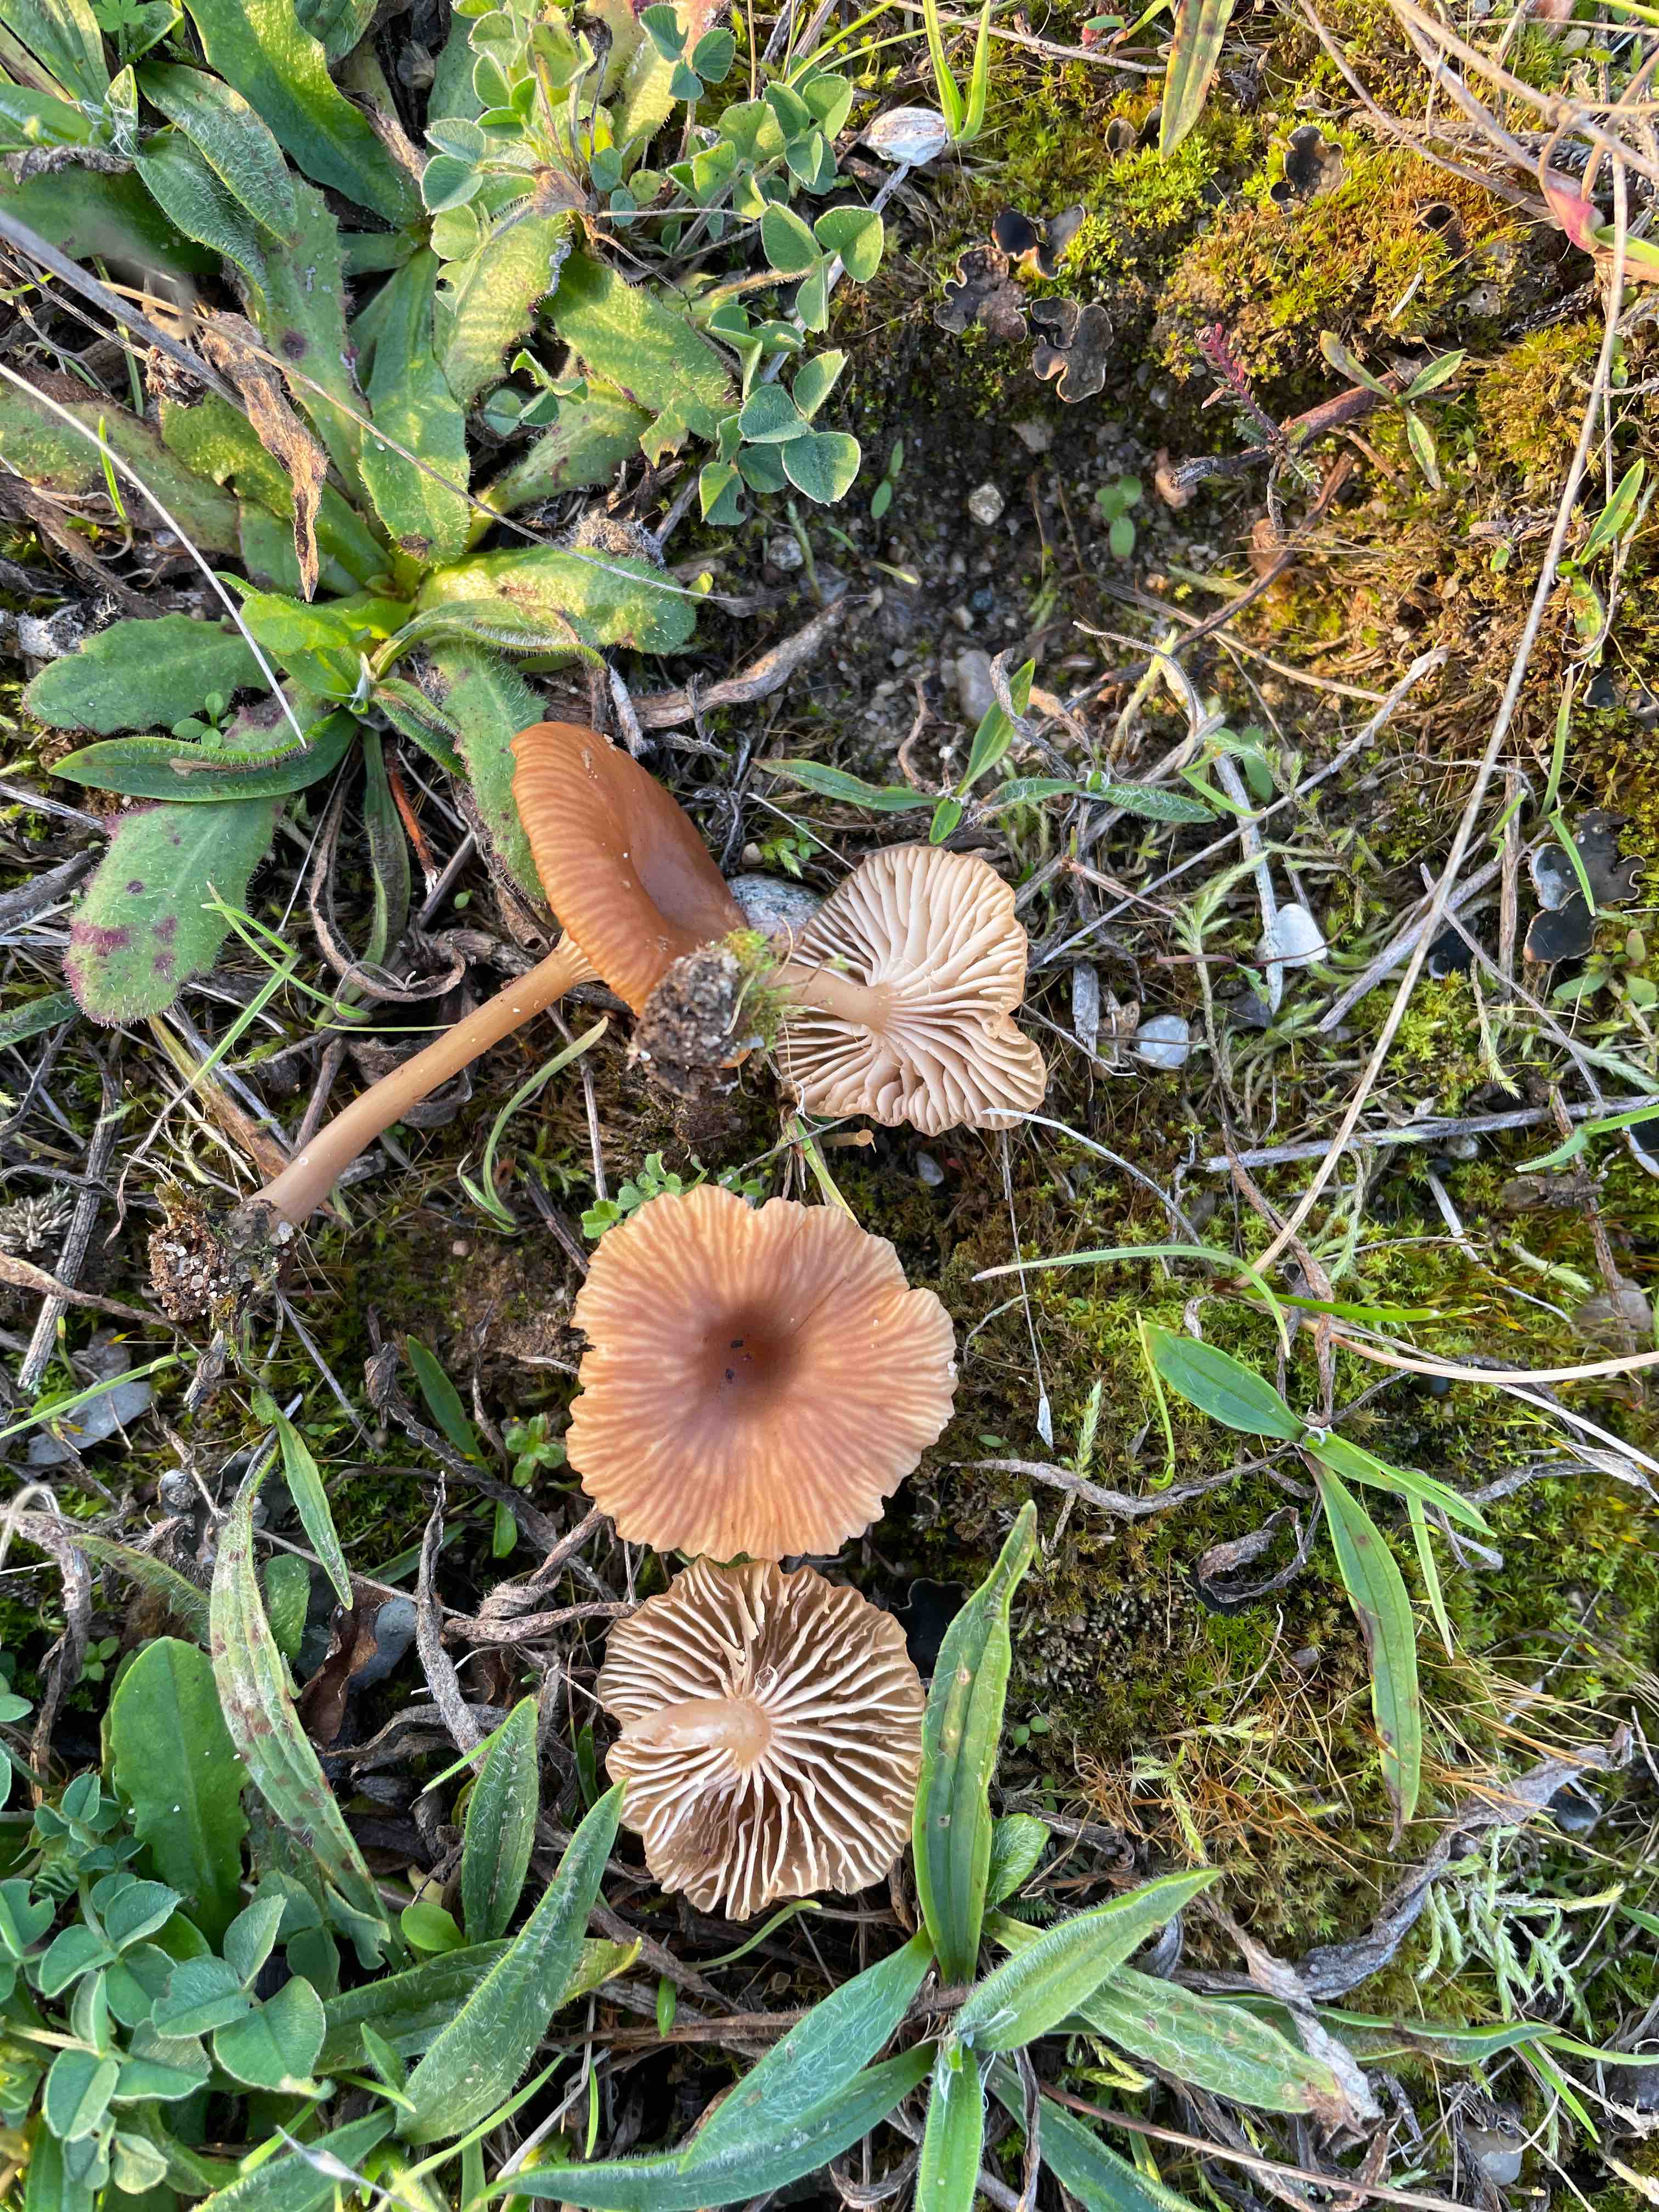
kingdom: Fungi
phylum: Basidiomycota
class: Agaricomycetes
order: Agaricales
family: Tricholomataceae
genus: Omphalina
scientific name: Omphalina pyxidata
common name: rødbrun navlehat
